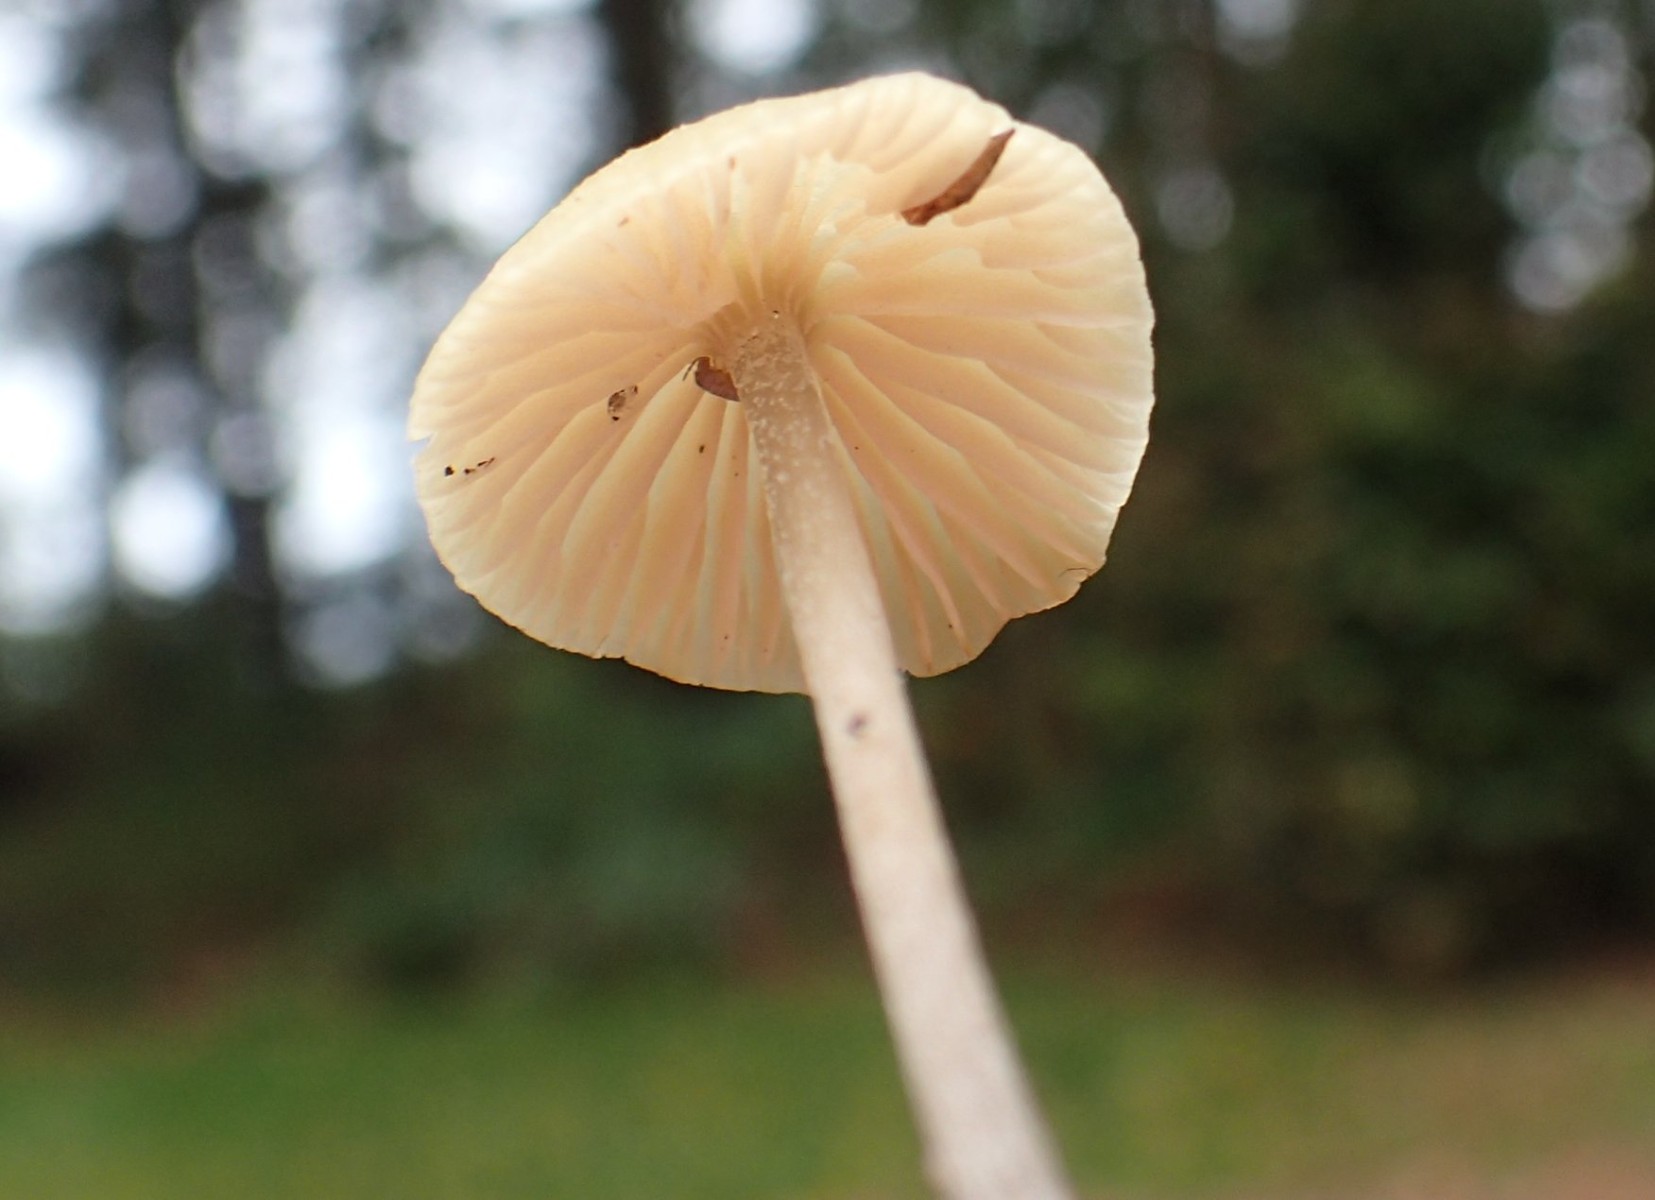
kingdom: Fungi
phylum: Basidiomycota
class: Agaricomycetes
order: Agaricales
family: Entolomataceae
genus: Entoloma
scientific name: Entoloma pleopodium
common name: duftende rødblad
